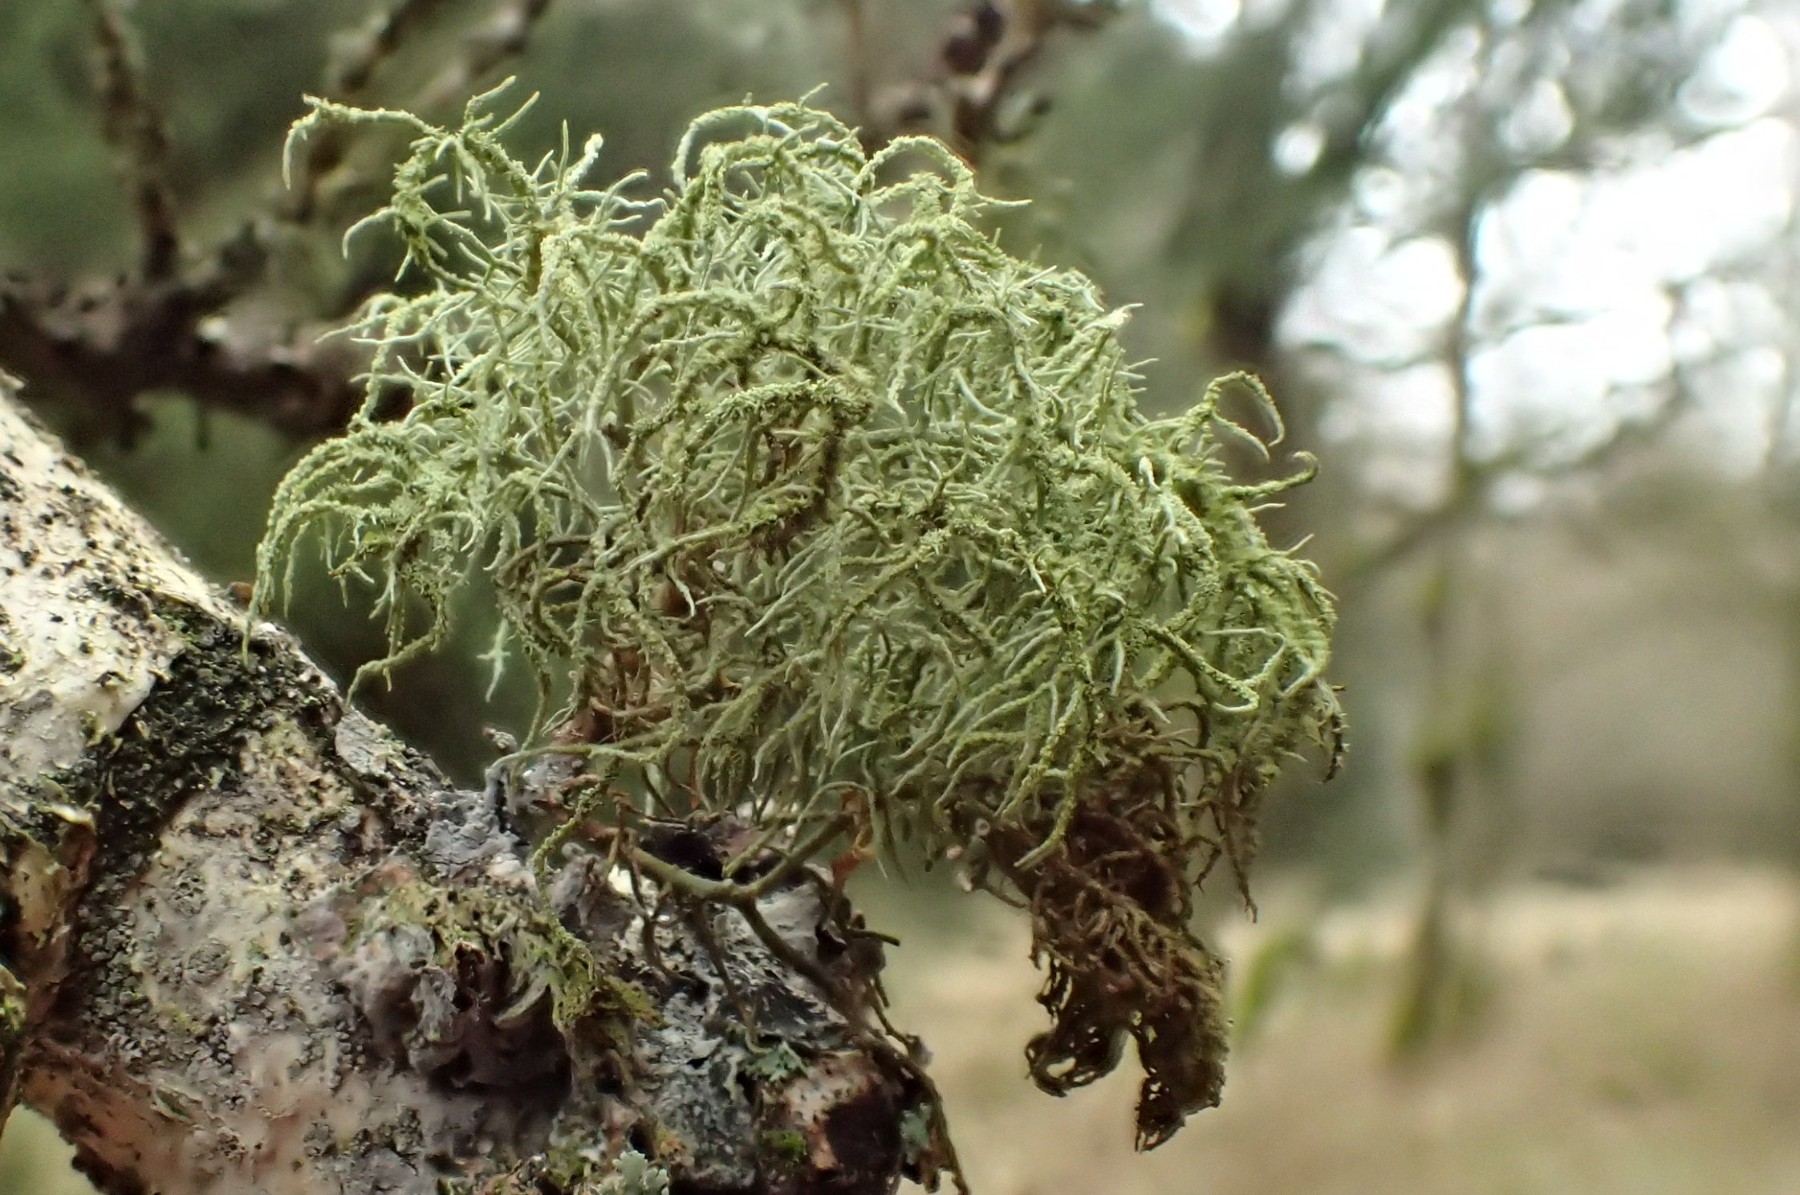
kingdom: Fungi
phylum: Ascomycota
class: Lecanoromycetes
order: Lecanorales
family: Parmeliaceae
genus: Usnea
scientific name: Usnea
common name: skæglav
